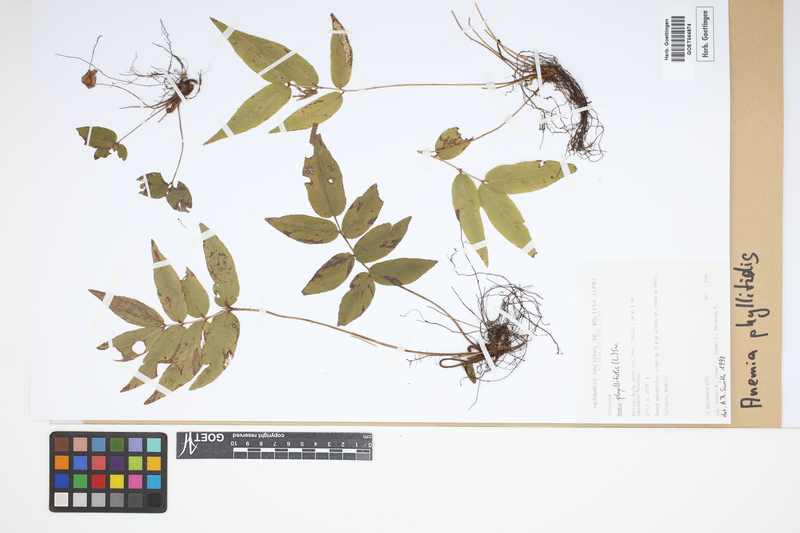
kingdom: Plantae
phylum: Tracheophyta
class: Polypodiopsida
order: Schizaeales
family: Anemiaceae
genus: Anemia
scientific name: Anemia phyllitidis
